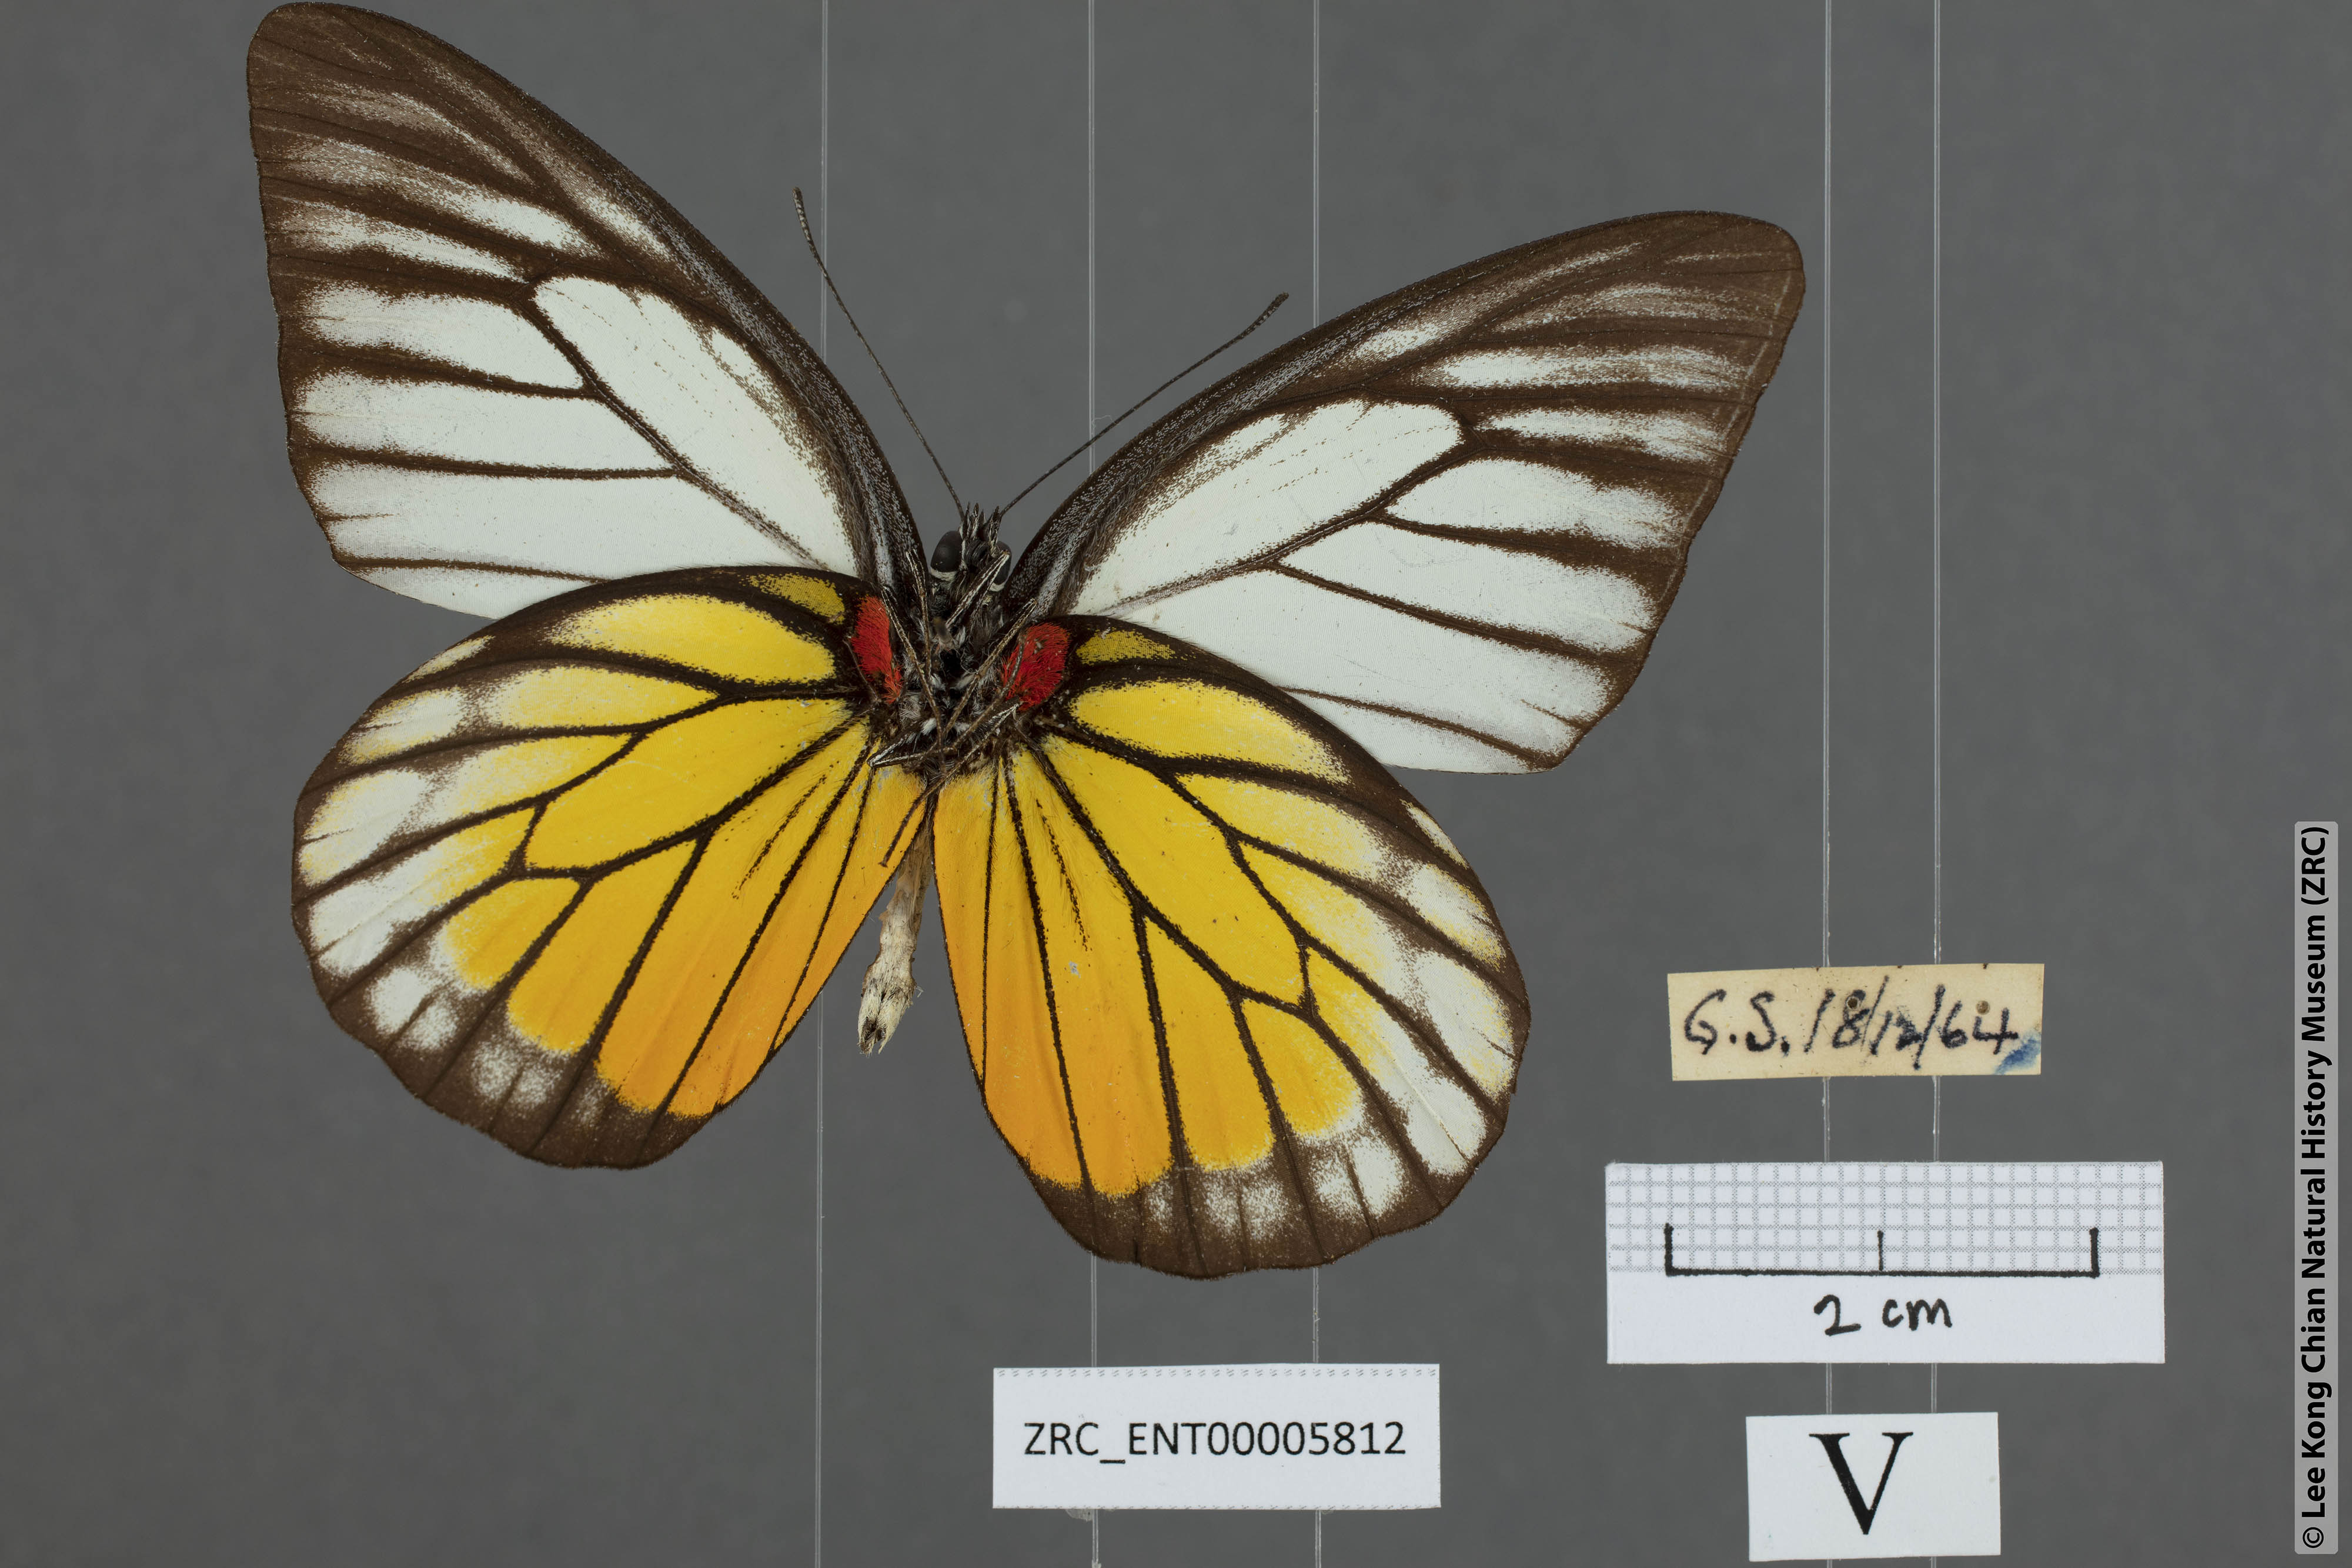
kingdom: Animalia
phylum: Arthropoda
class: Insecta
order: Lepidoptera
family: Pieridae
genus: Prioneris
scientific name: Prioneris philonome
